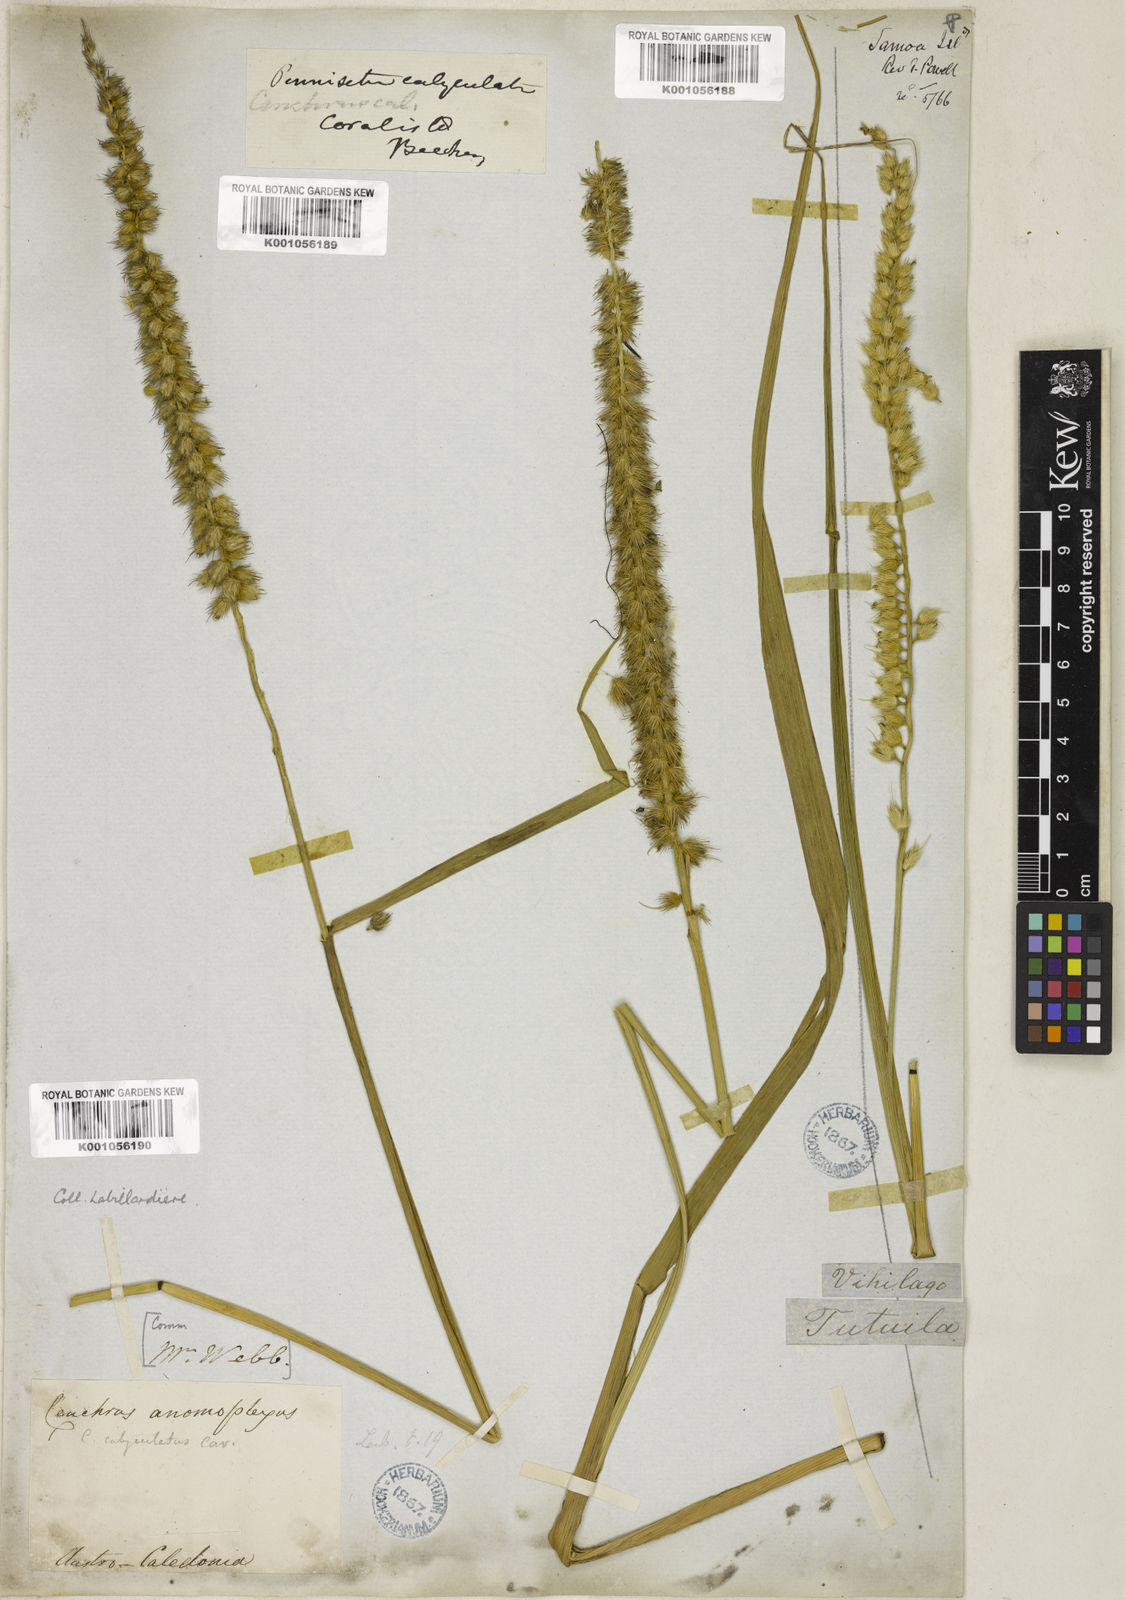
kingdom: Plantae
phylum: Tracheophyta
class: Liliopsida
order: Poales
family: Poaceae
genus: Cenchrus
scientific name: Cenchrus caliculatus
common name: Large bur grass
